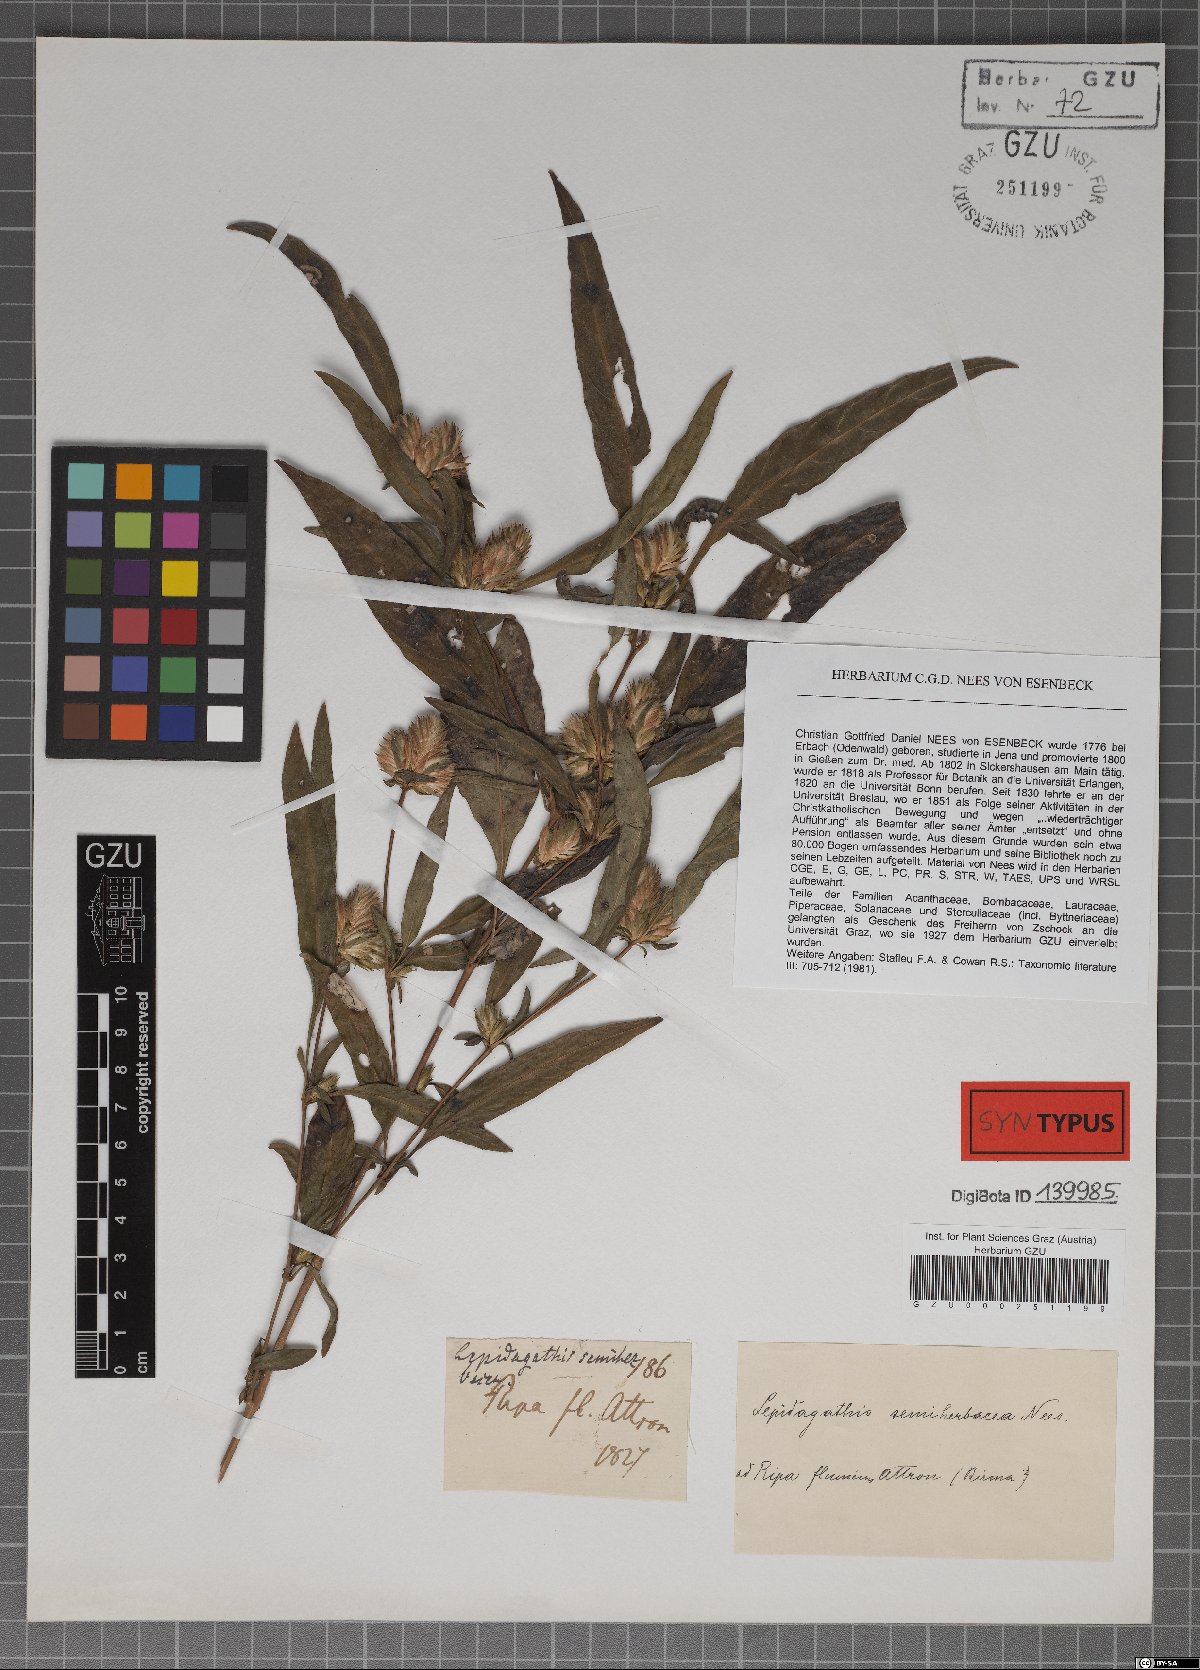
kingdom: Plantae
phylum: Tracheophyta
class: Magnoliopsida
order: Lamiales
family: Acanthaceae
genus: Lepidagathis
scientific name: Lepidagathis incurva
